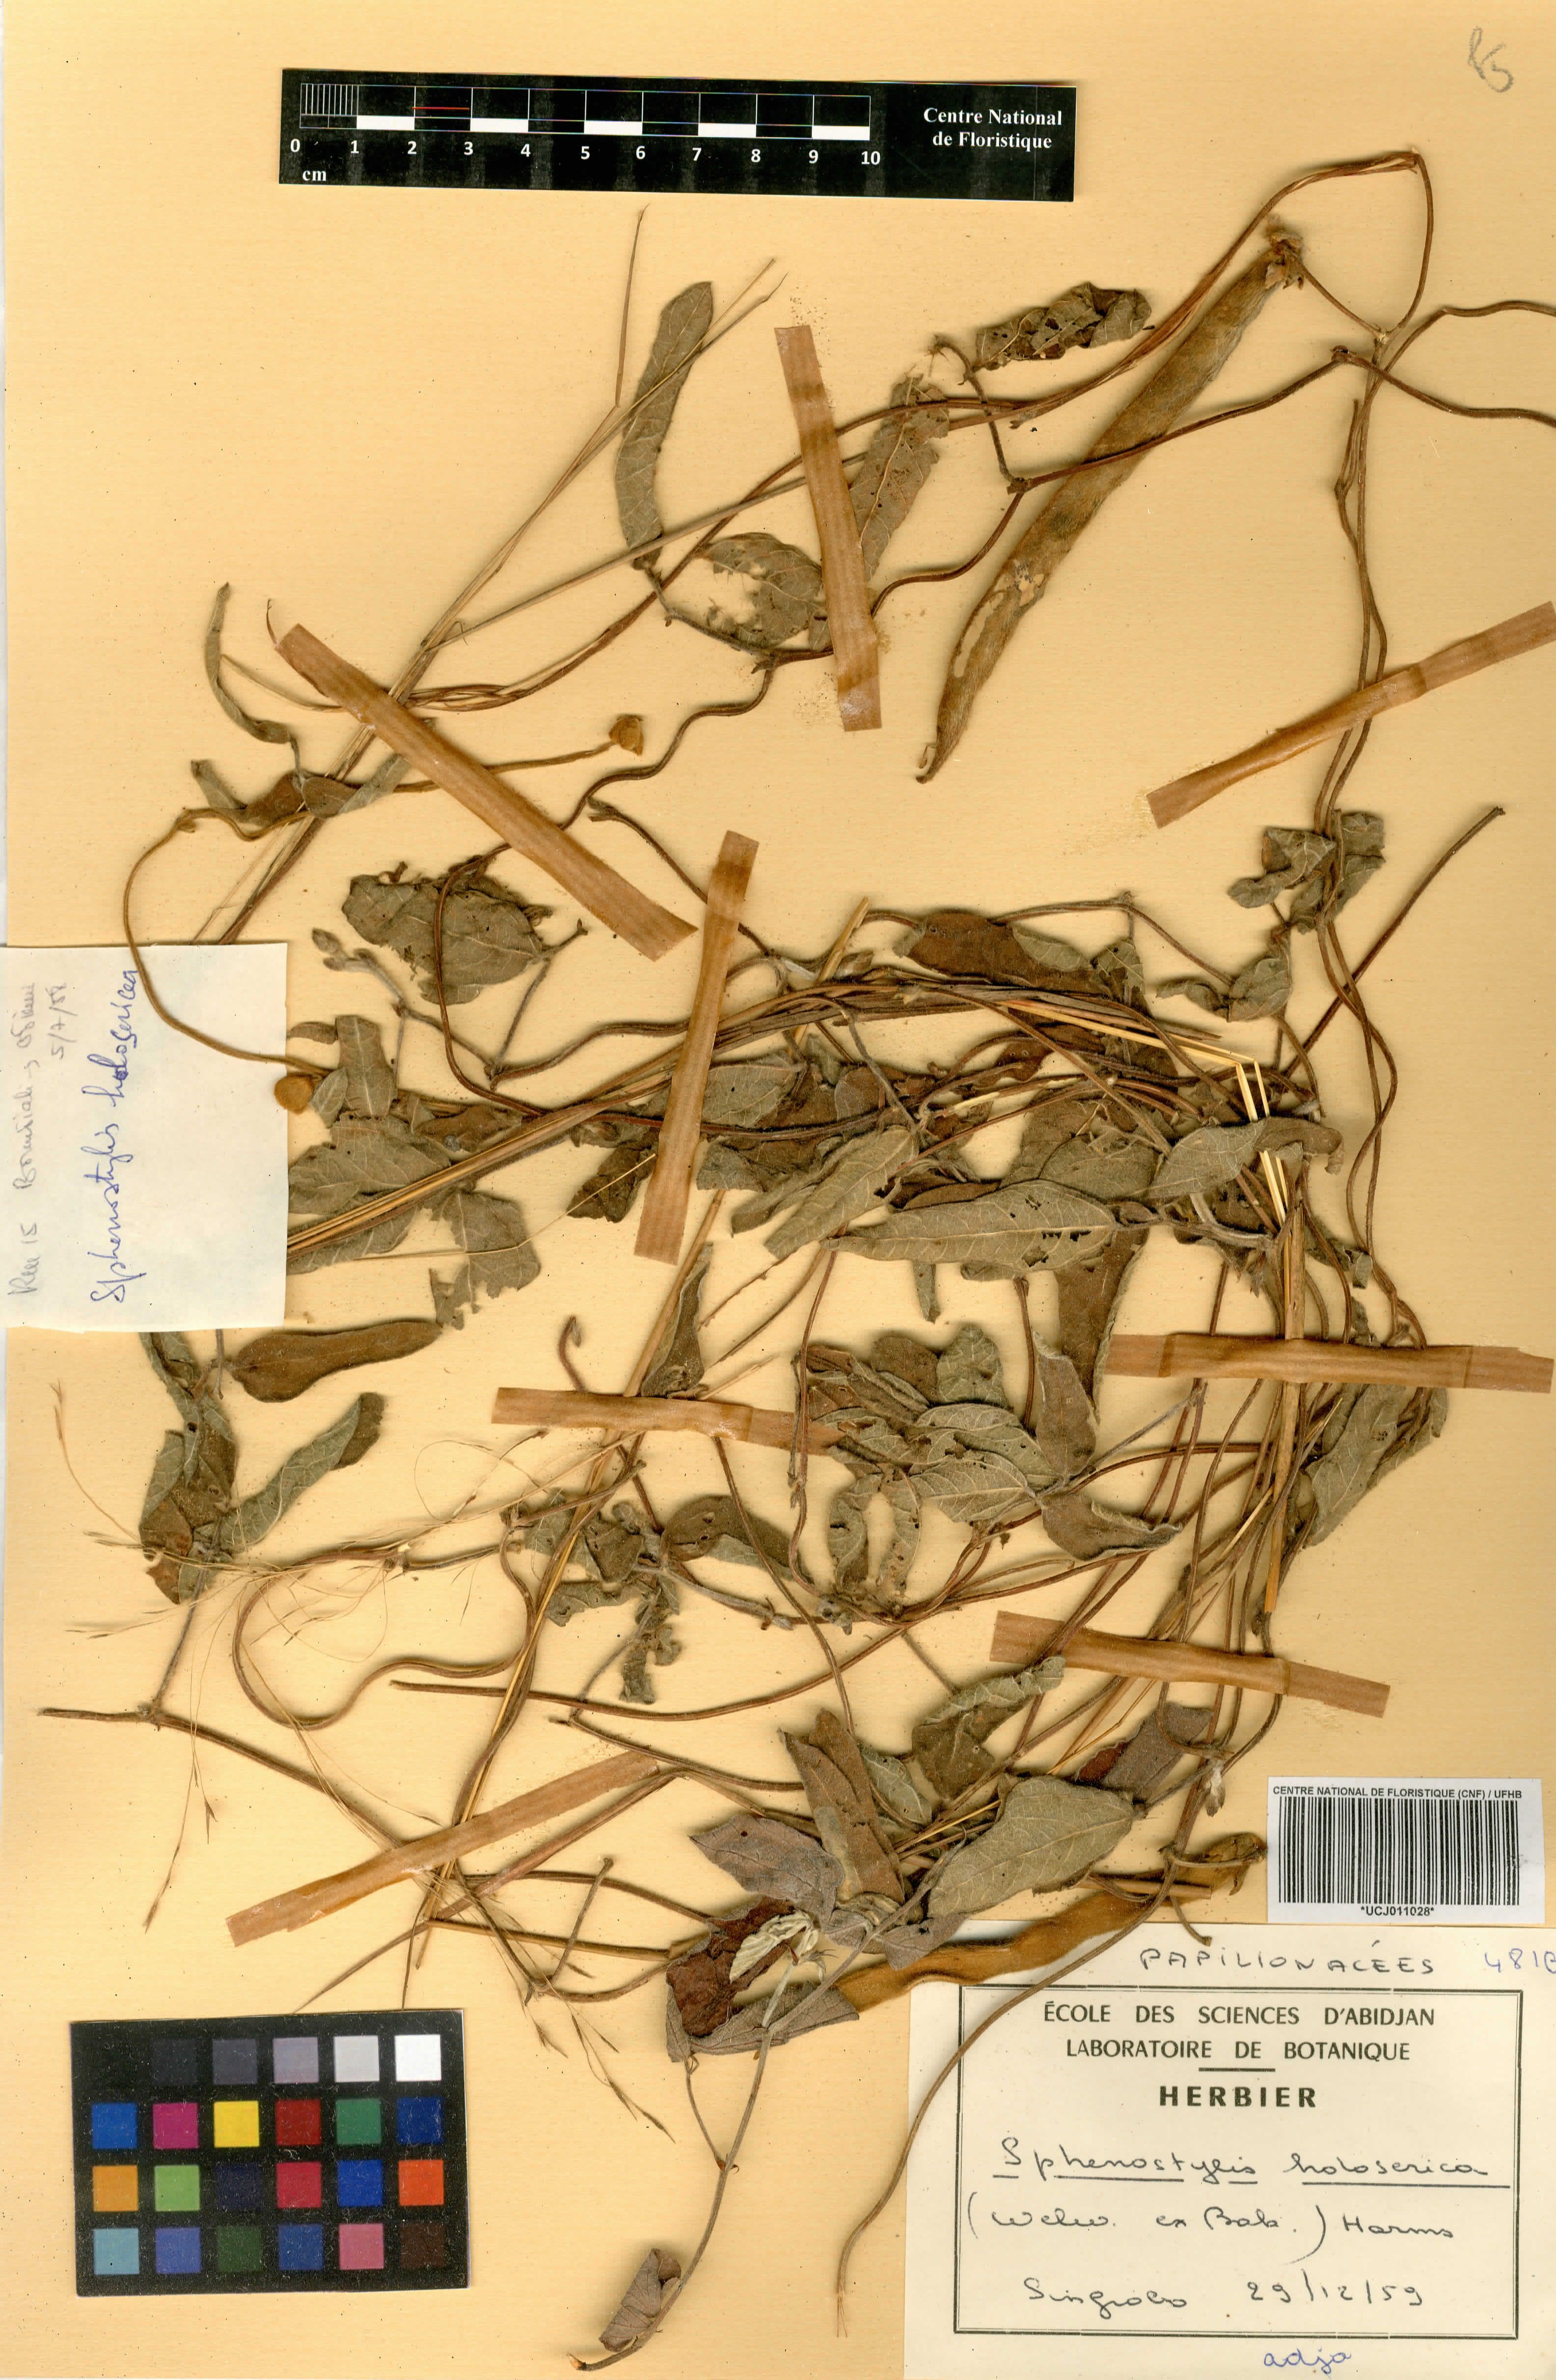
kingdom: Plantae
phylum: Tracheophyta
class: Magnoliopsida
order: Fabales
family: Fabaceae
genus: Nesphostylis
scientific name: Nesphostylis holosericea
